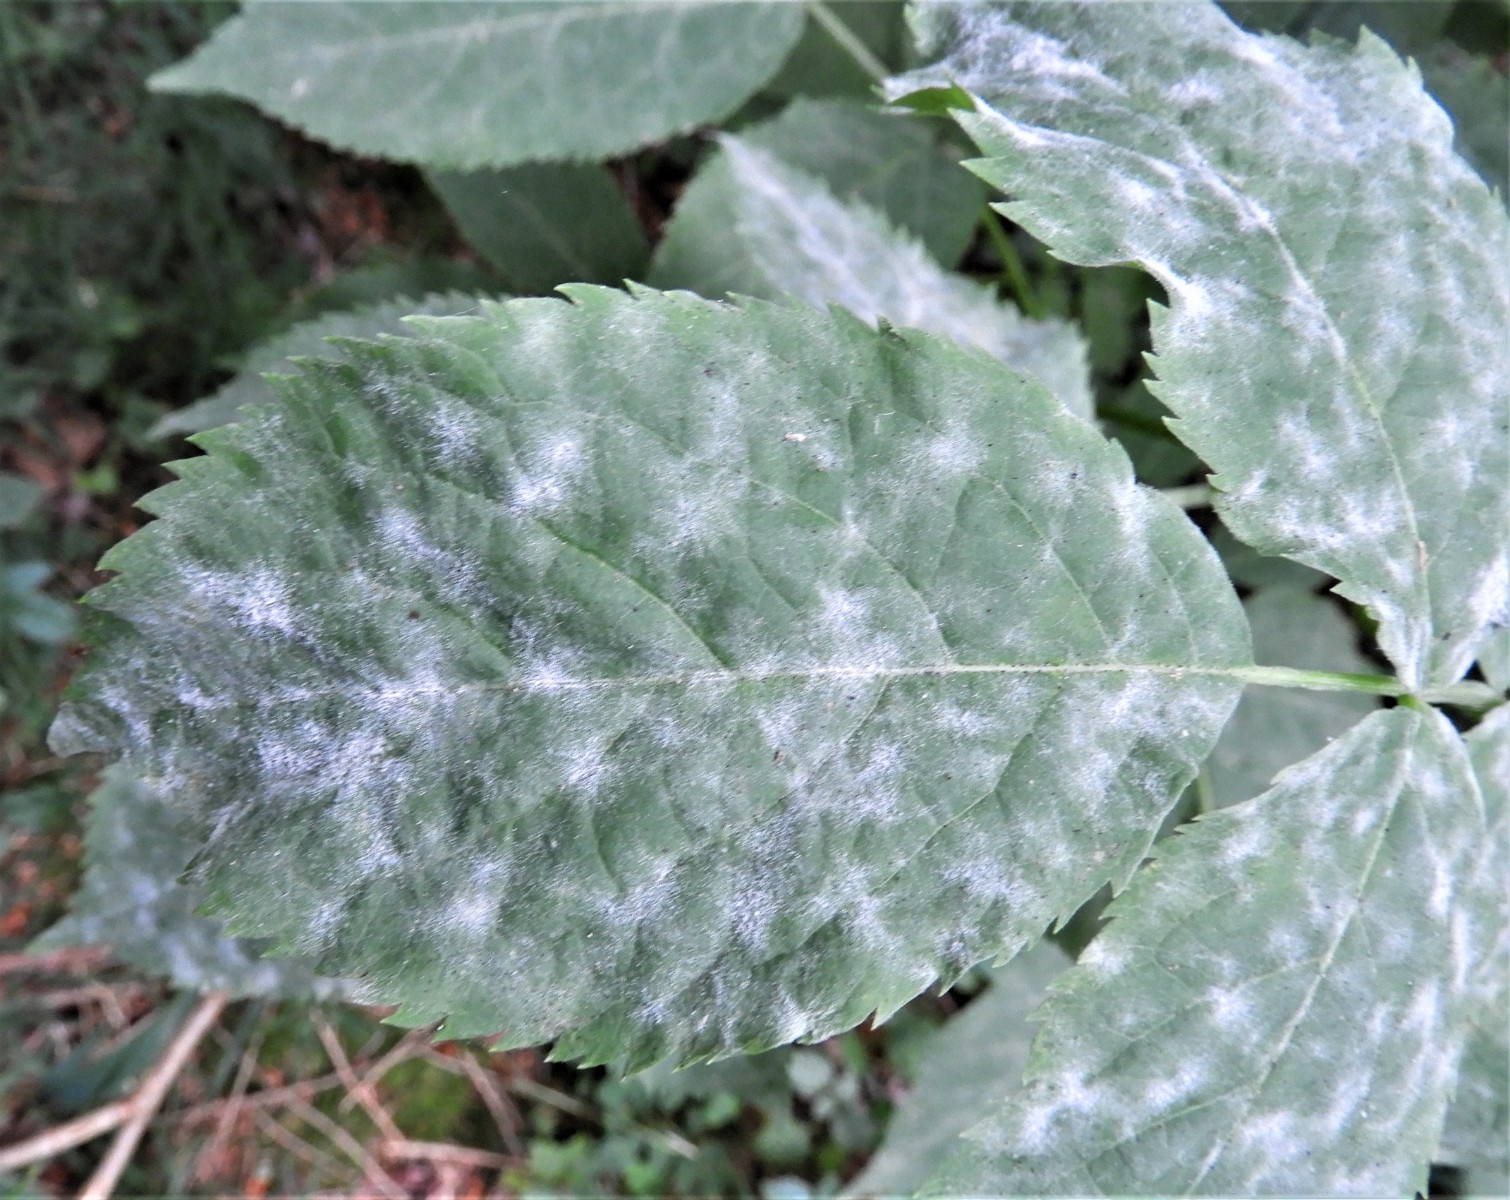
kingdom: Fungi
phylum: Ascomycota
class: Leotiomycetes
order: Helotiales
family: Erysiphaceae
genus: Erysiphe
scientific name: Erysiphe vanbruntiana
